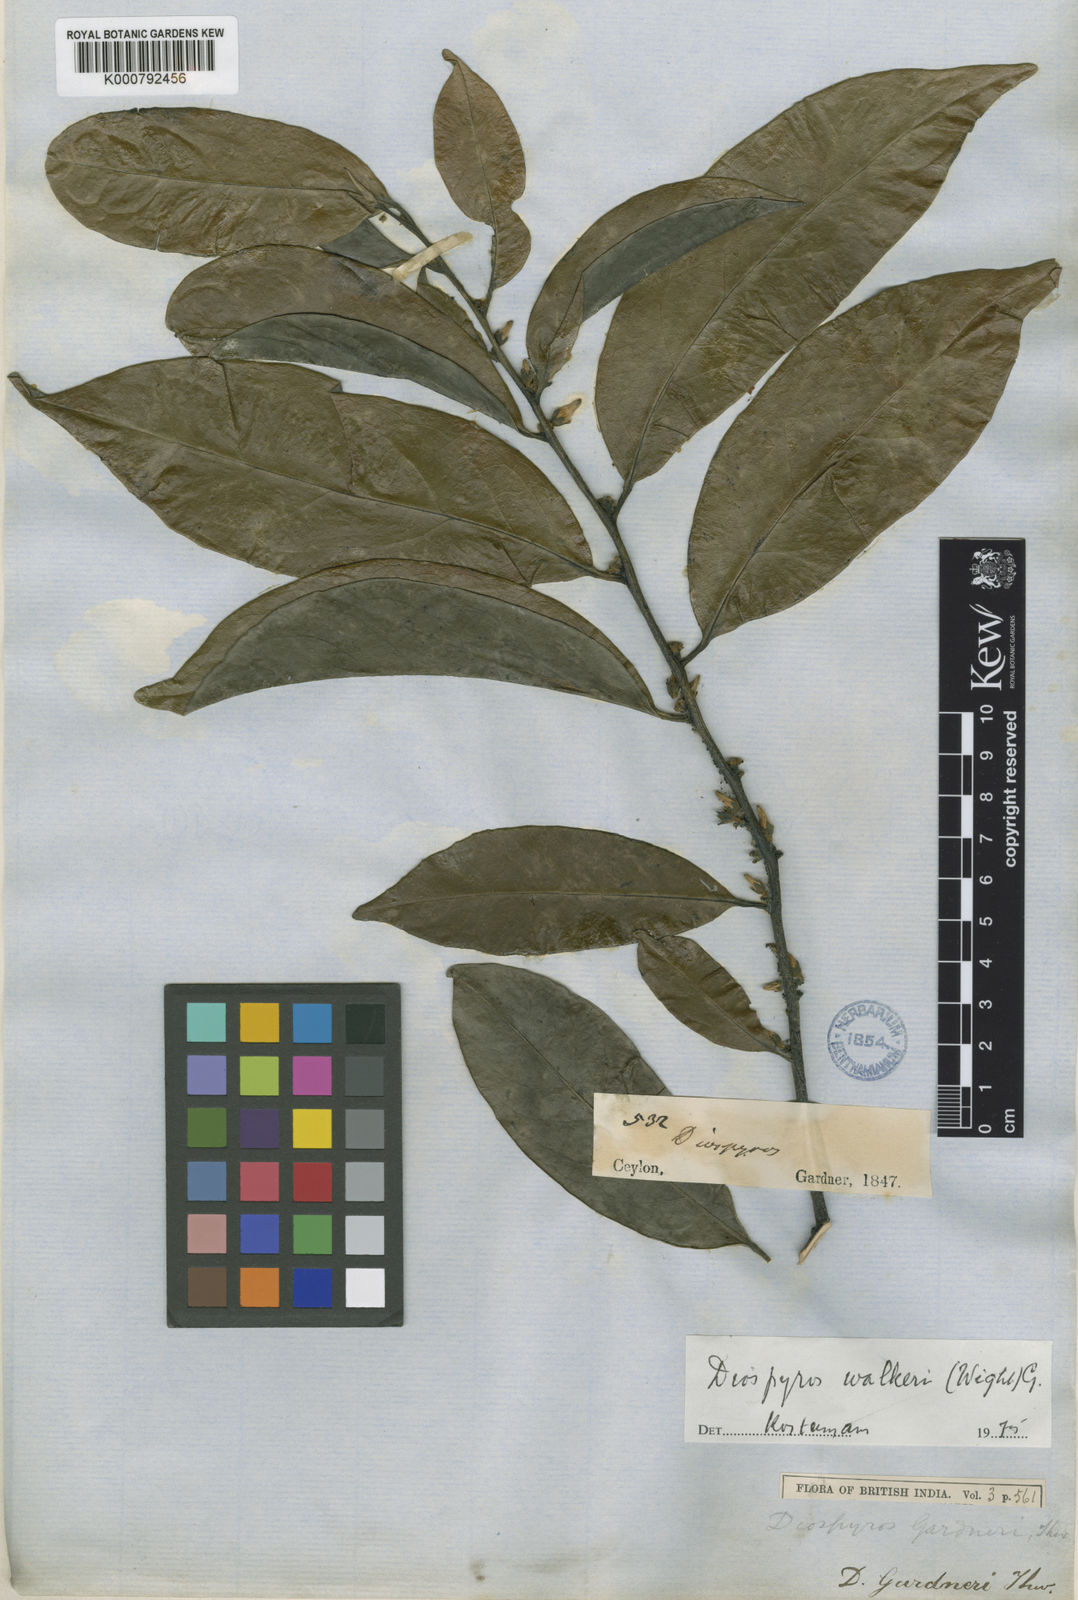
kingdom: Plantae
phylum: Tracheophyta
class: Magnoliopsida
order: Ericales
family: Ebenaceae
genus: Diospyros
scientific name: Diospyros
